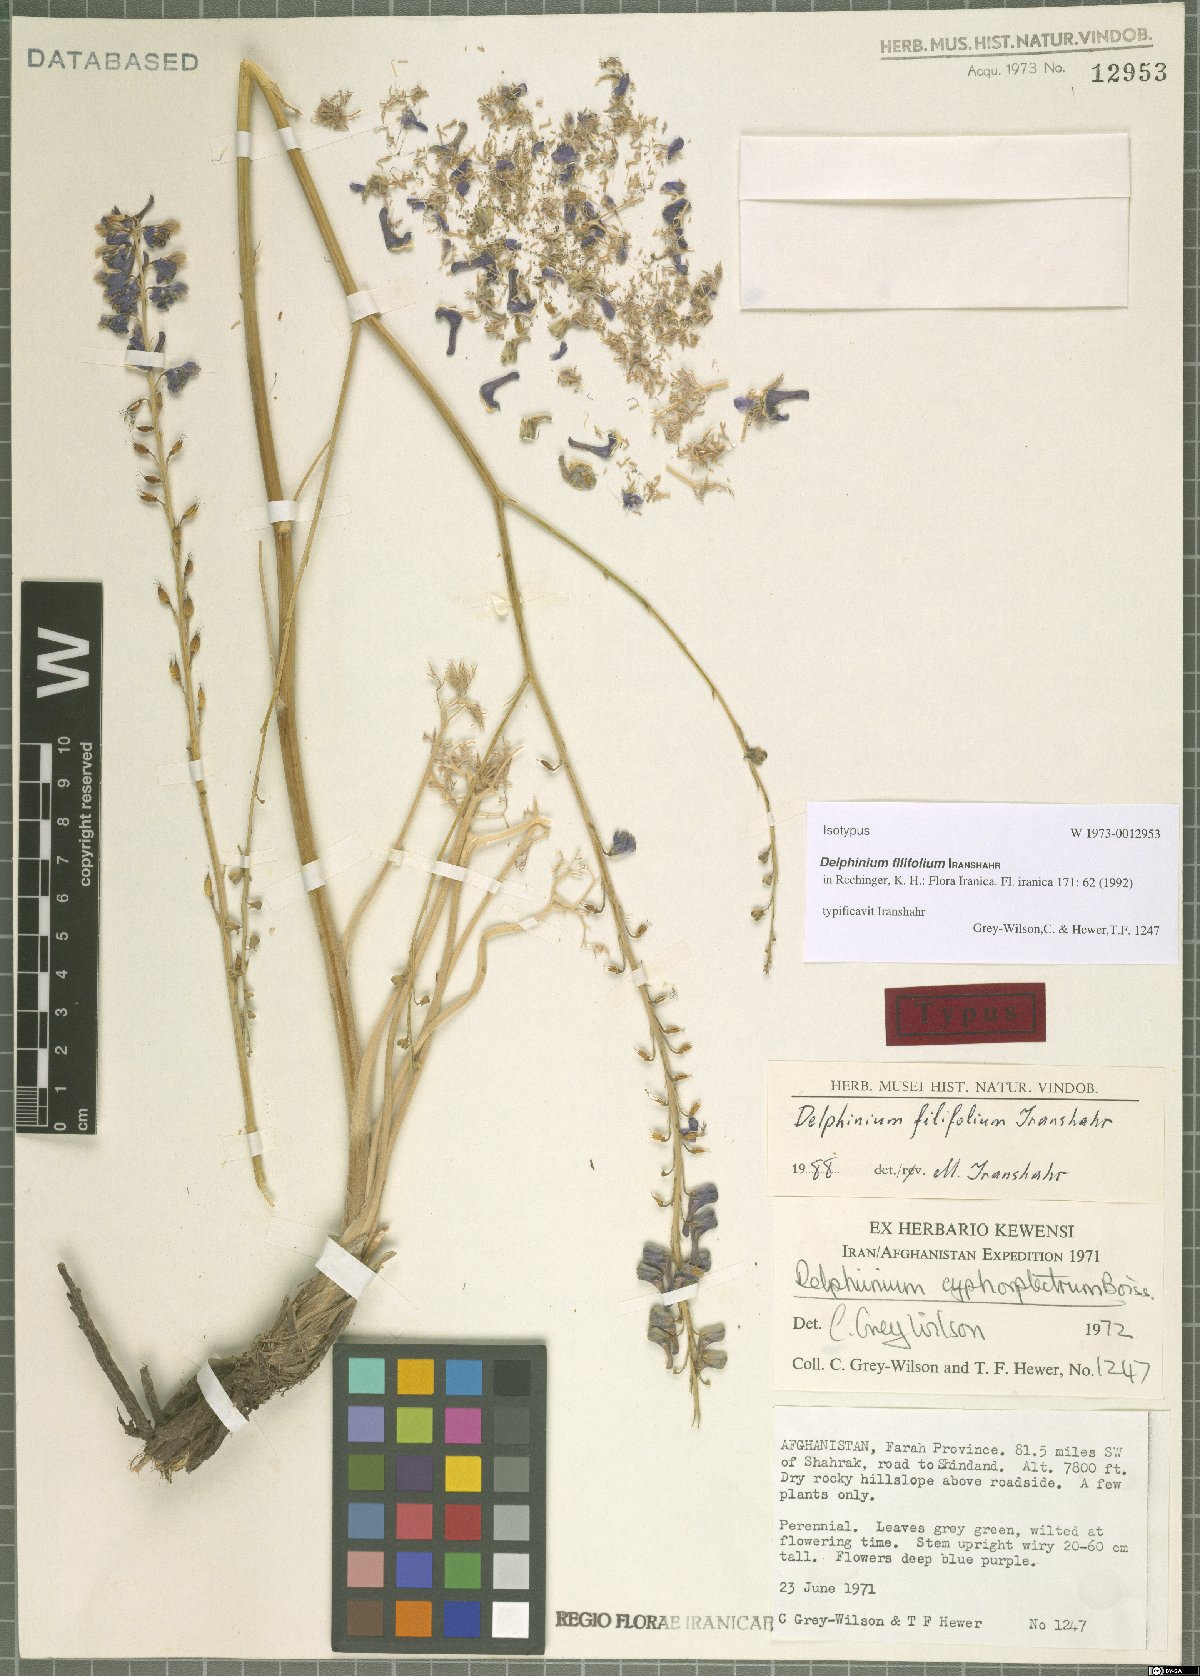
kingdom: Plantae
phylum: Tracheophyta
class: Magnoliopsida
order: Ranunculales
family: Ranunculaceae
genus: Delphinium
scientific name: Delphinium filifolium
